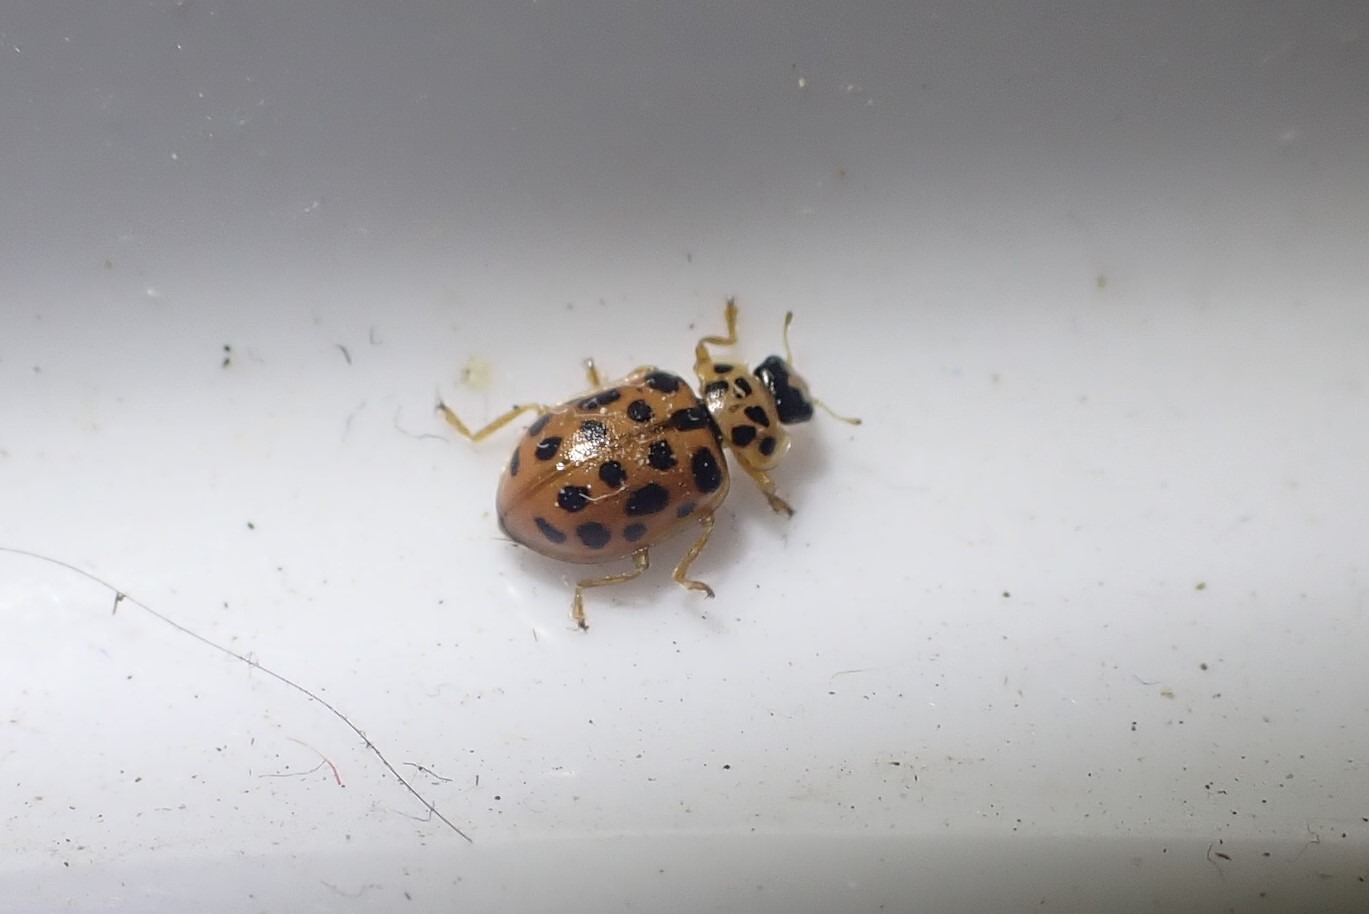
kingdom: Animalia
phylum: Arthropoda
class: Insecta
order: Coleoptera
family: Coccinellidae
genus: Anisosticta
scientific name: Anisosticta novemdecimpunctata
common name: Nittenplettet mariehøne
